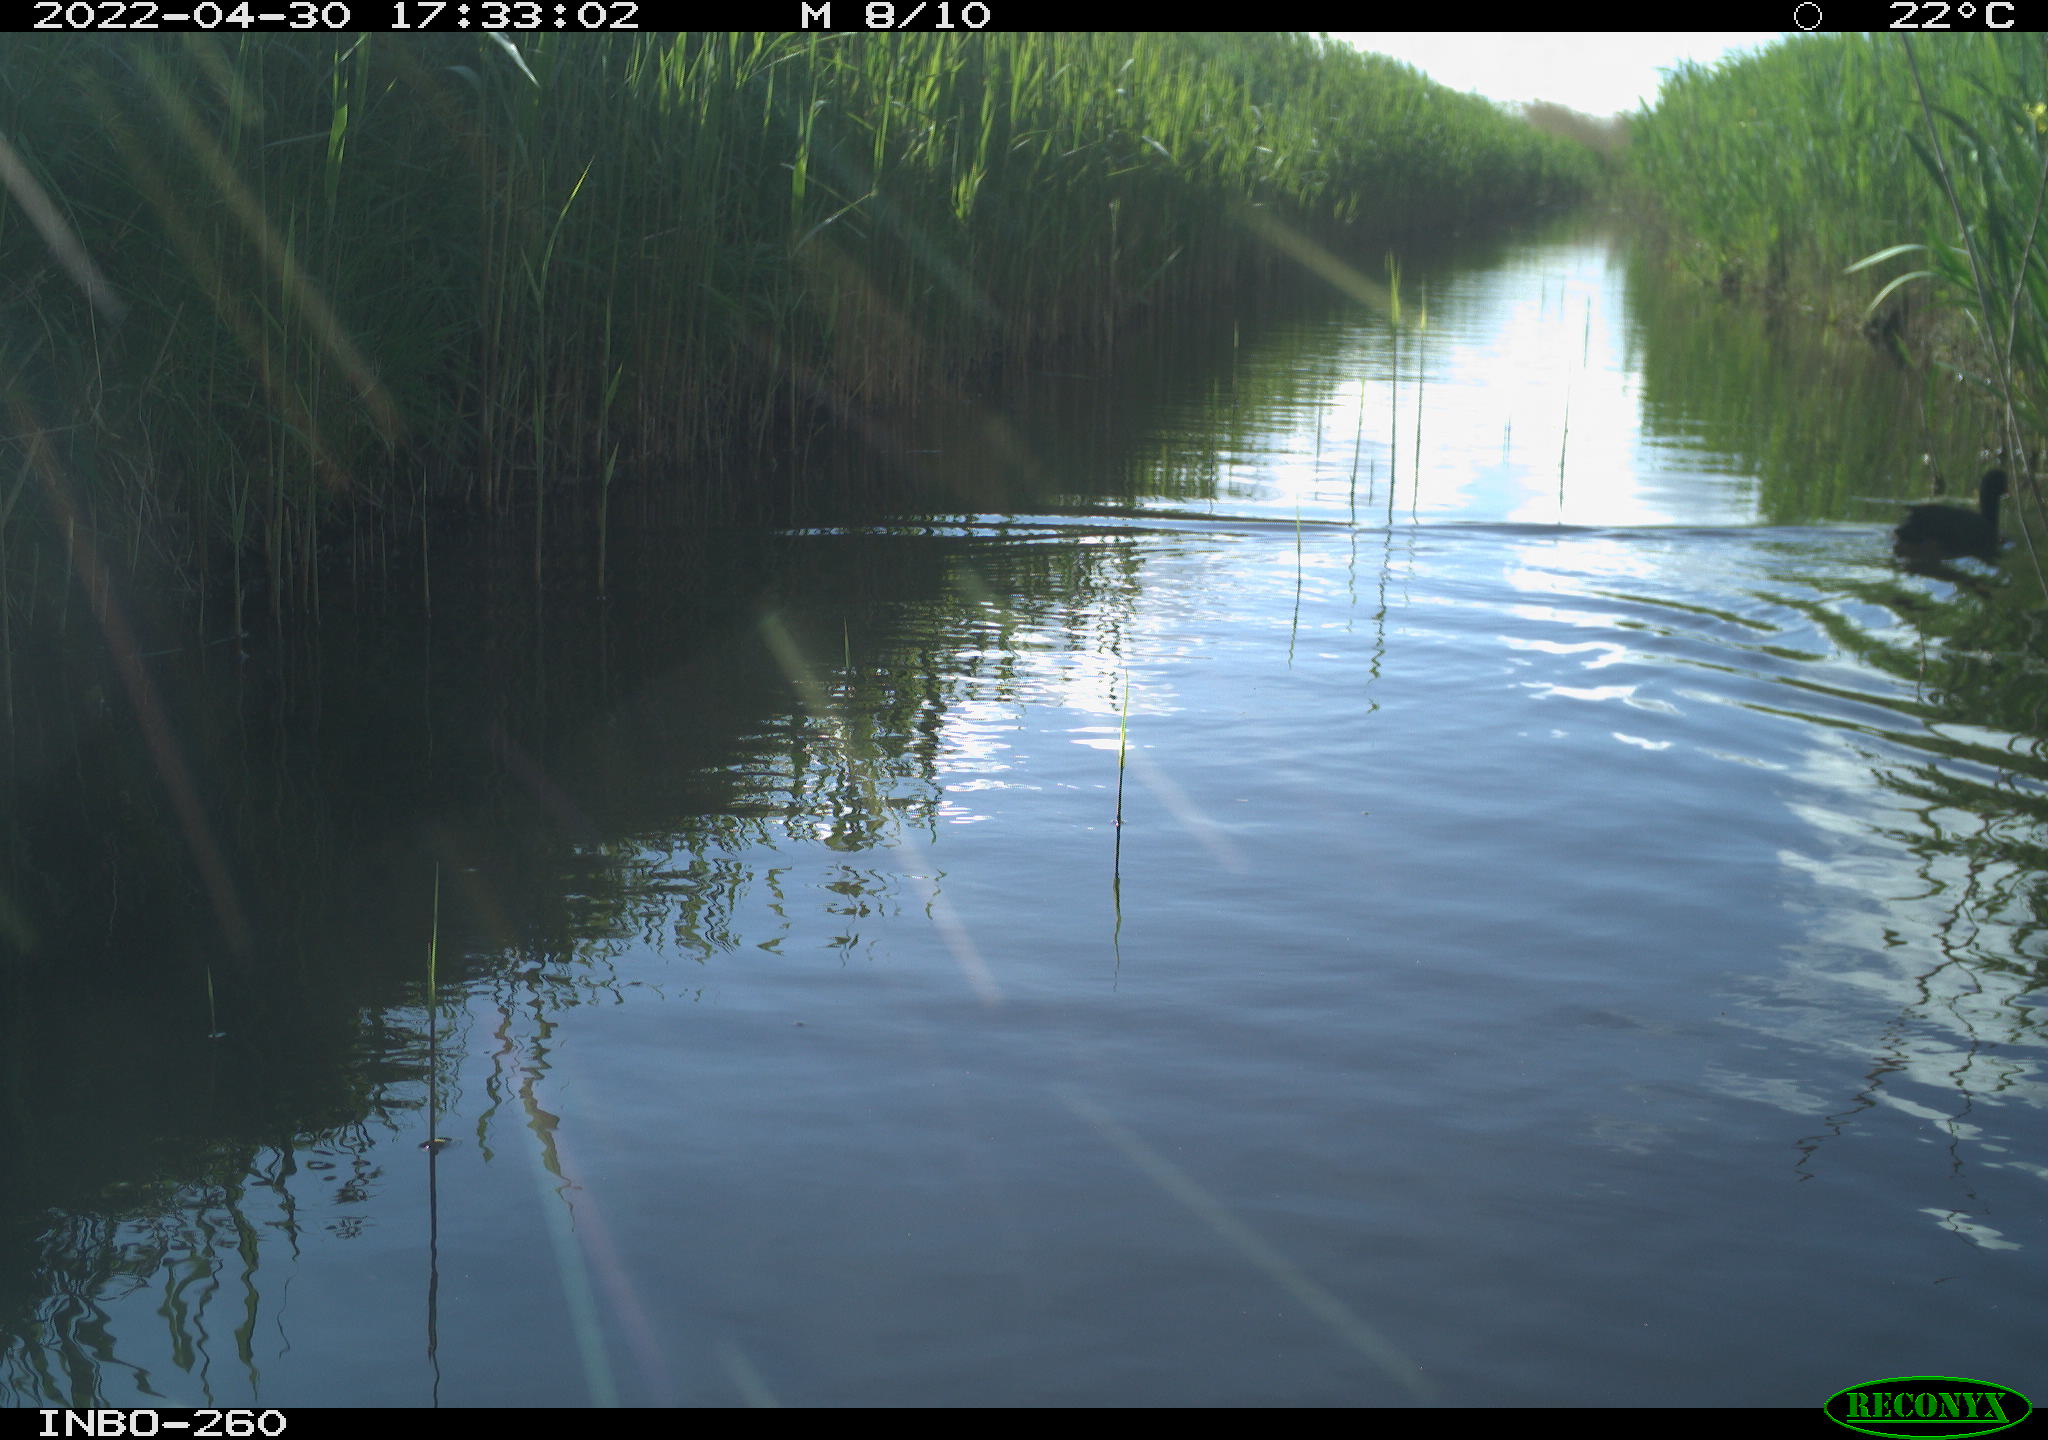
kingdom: Animalia
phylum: Chordata
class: Aves
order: Gruiformes
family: Rallidae
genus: Fulica
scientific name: Fulica atra
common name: Eurasian coot
